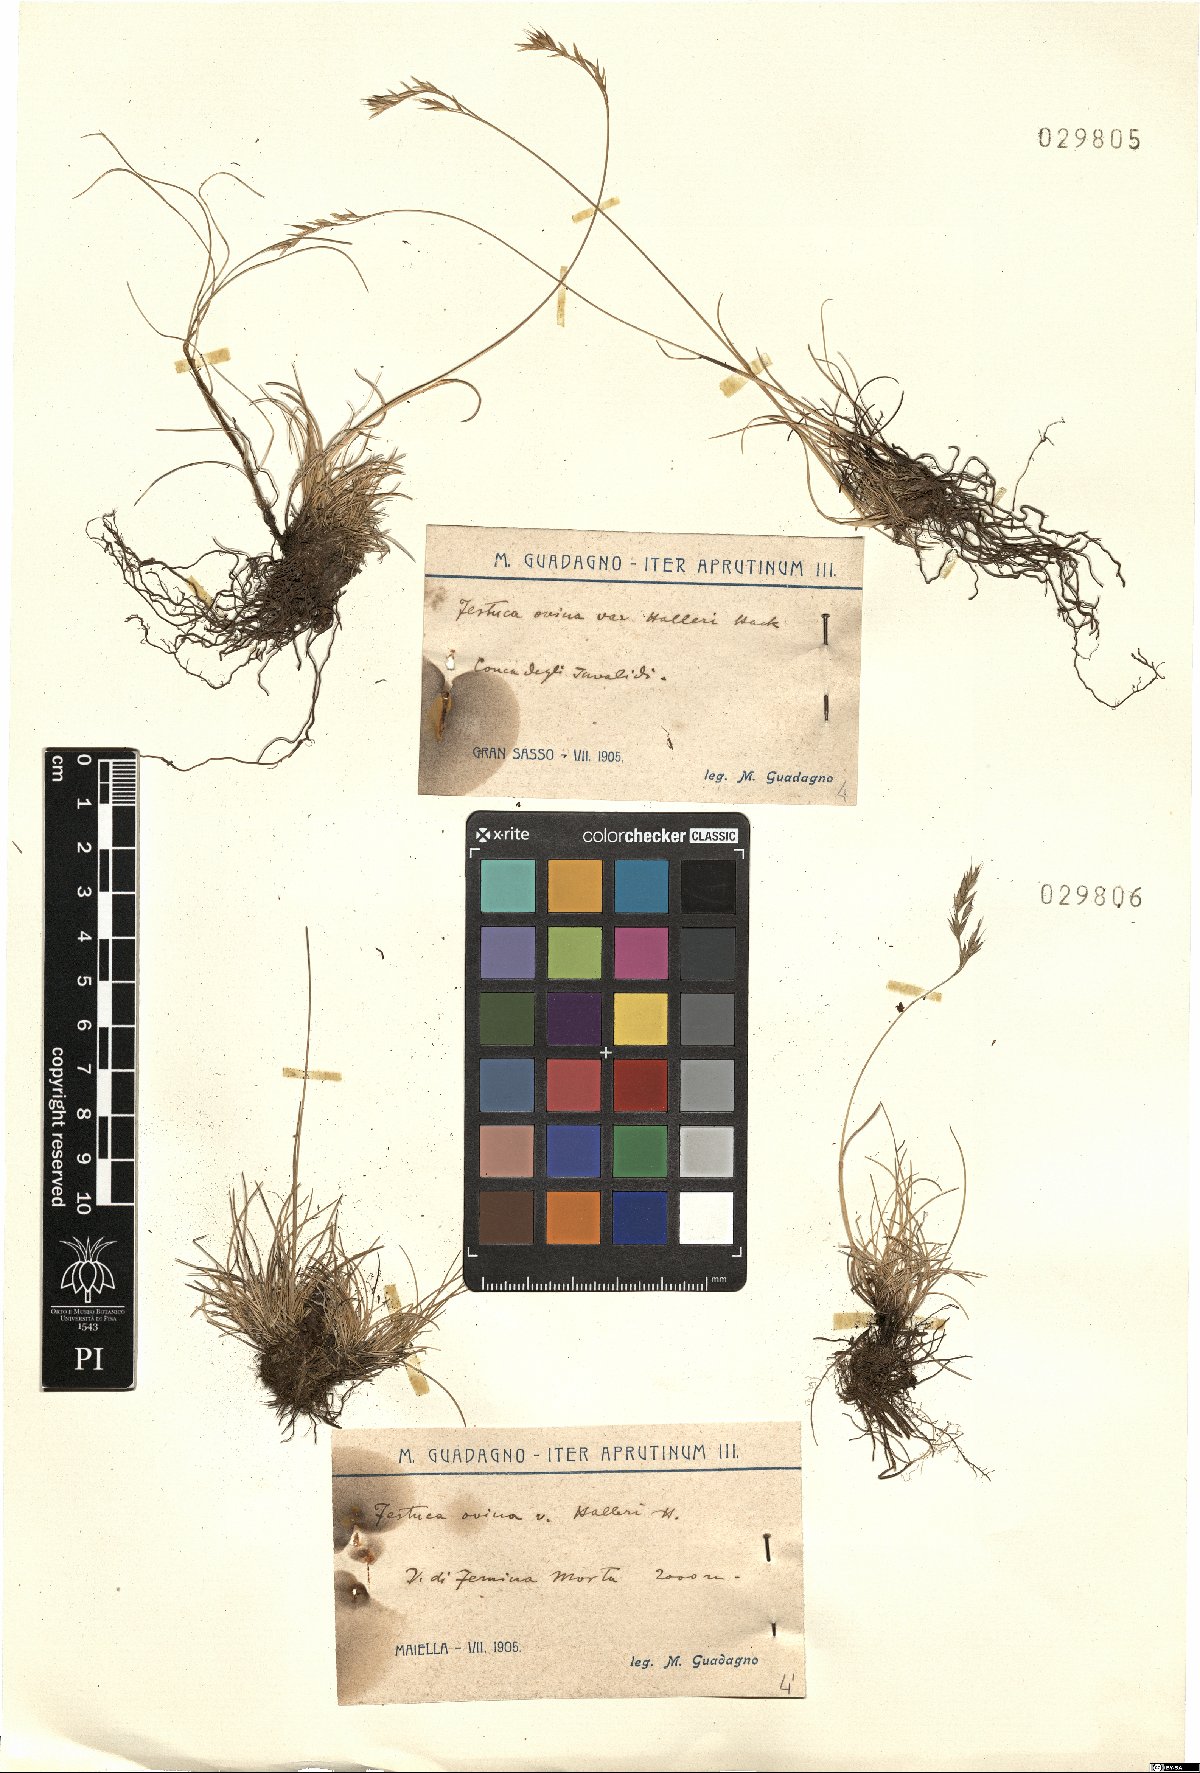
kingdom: Plantae
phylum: Tracheophyta
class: Liliopsida
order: Poales
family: Poaceae
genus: Festuca
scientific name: Festuca alfrediana
